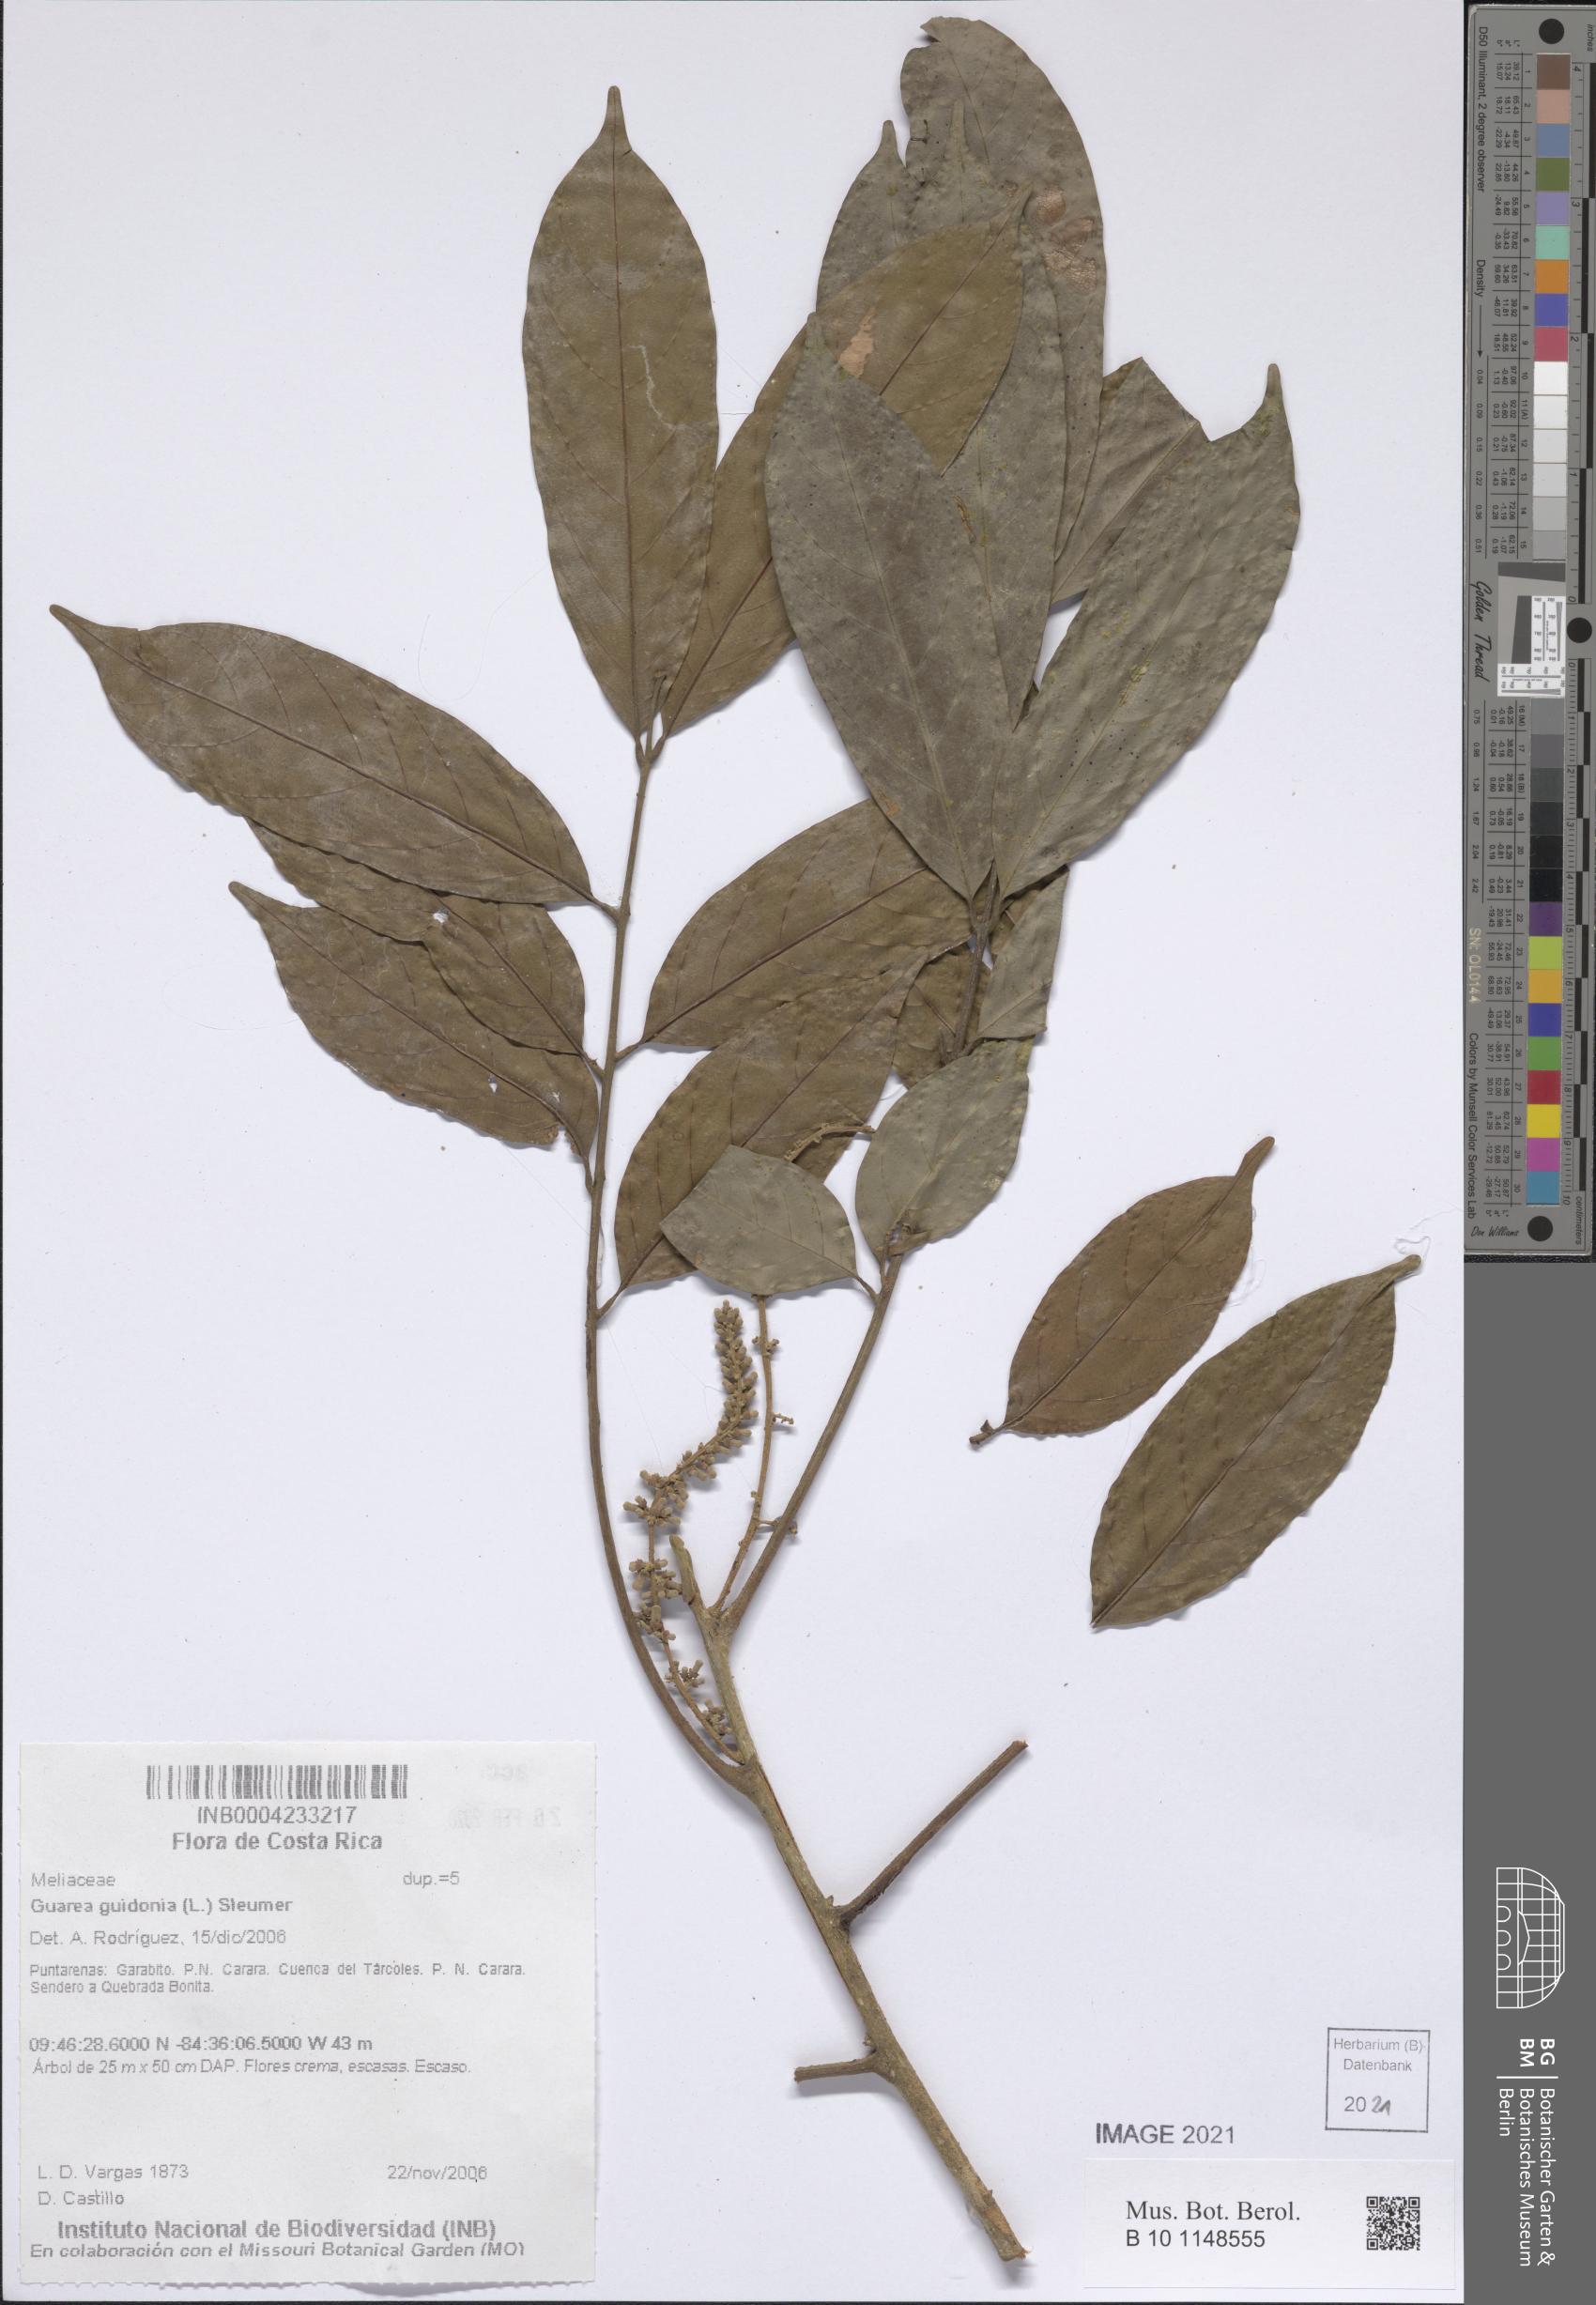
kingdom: Plantae
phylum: Tracheophyta
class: Magnoliopsida
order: Sapindales
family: Meliaceae
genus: Guarea
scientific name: Guarea guidonia
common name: American muskwood
